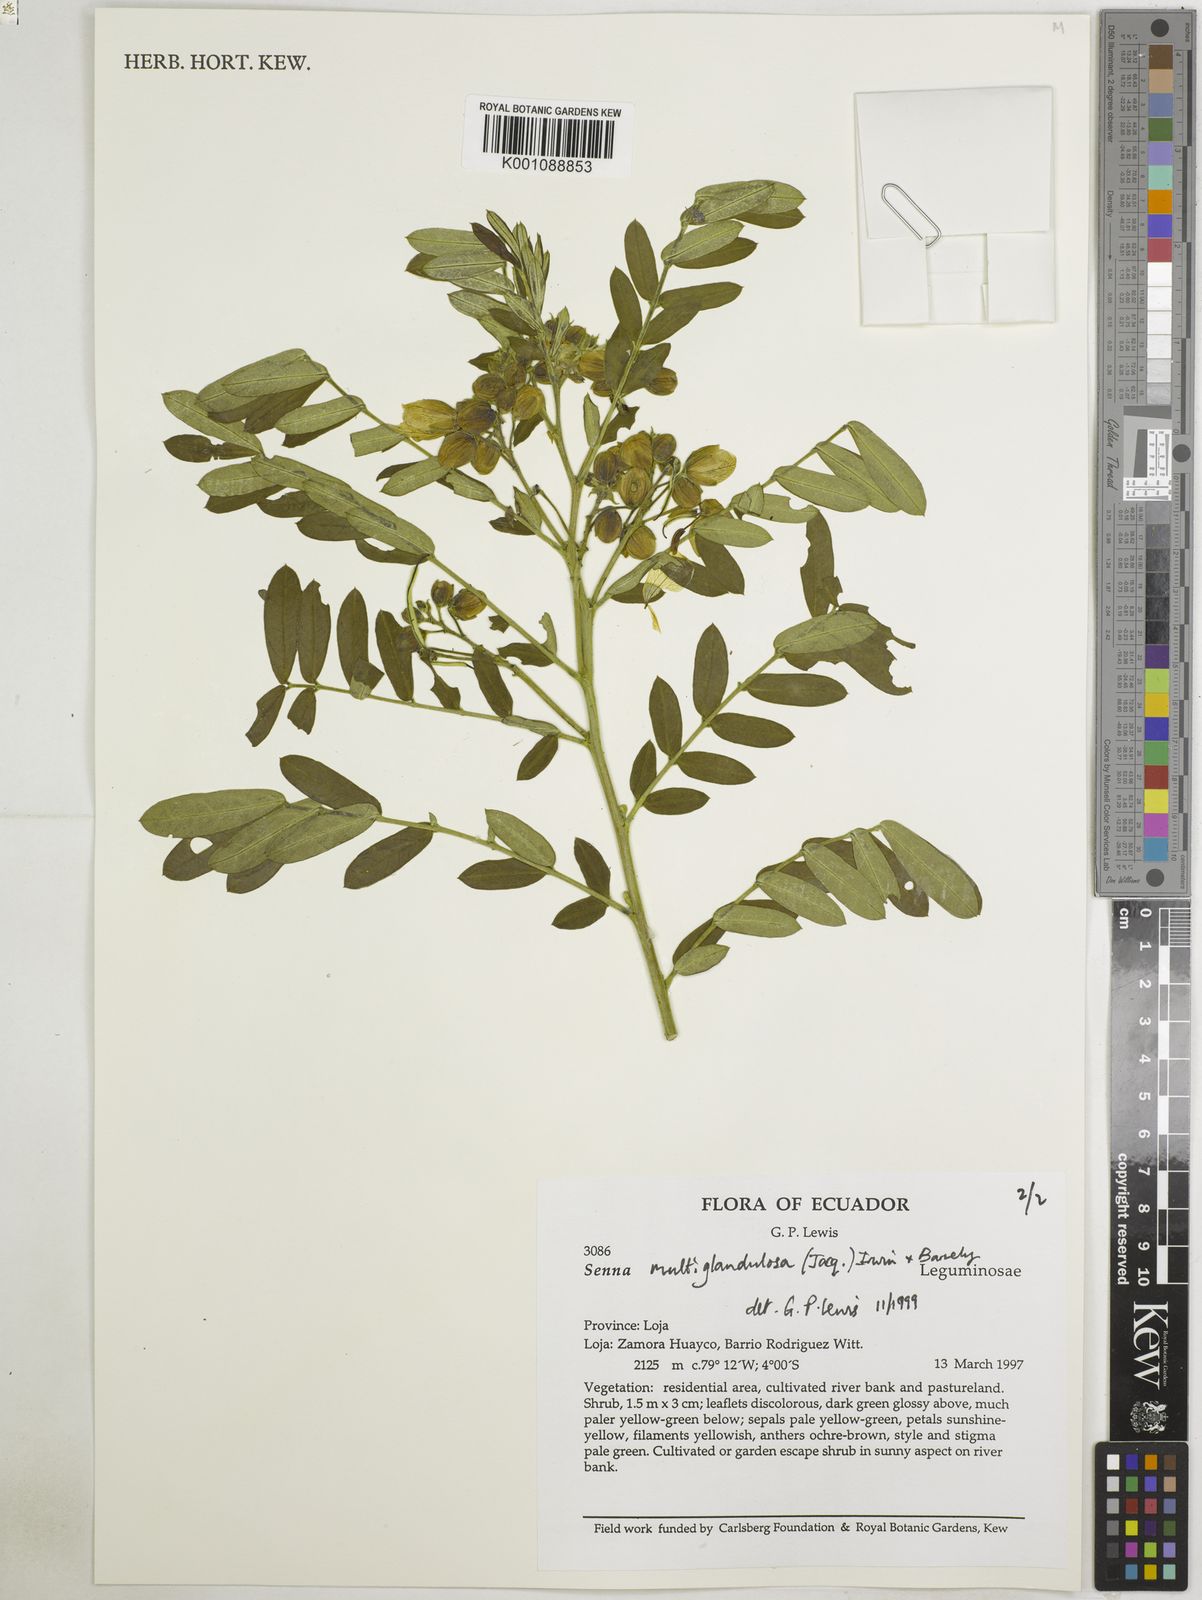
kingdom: Plantae
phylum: Tracheophyta
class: Magnoliopsida
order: Fabales
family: Fabaceae
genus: Senna
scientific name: Senna multiglandulosa
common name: Glandular senna
